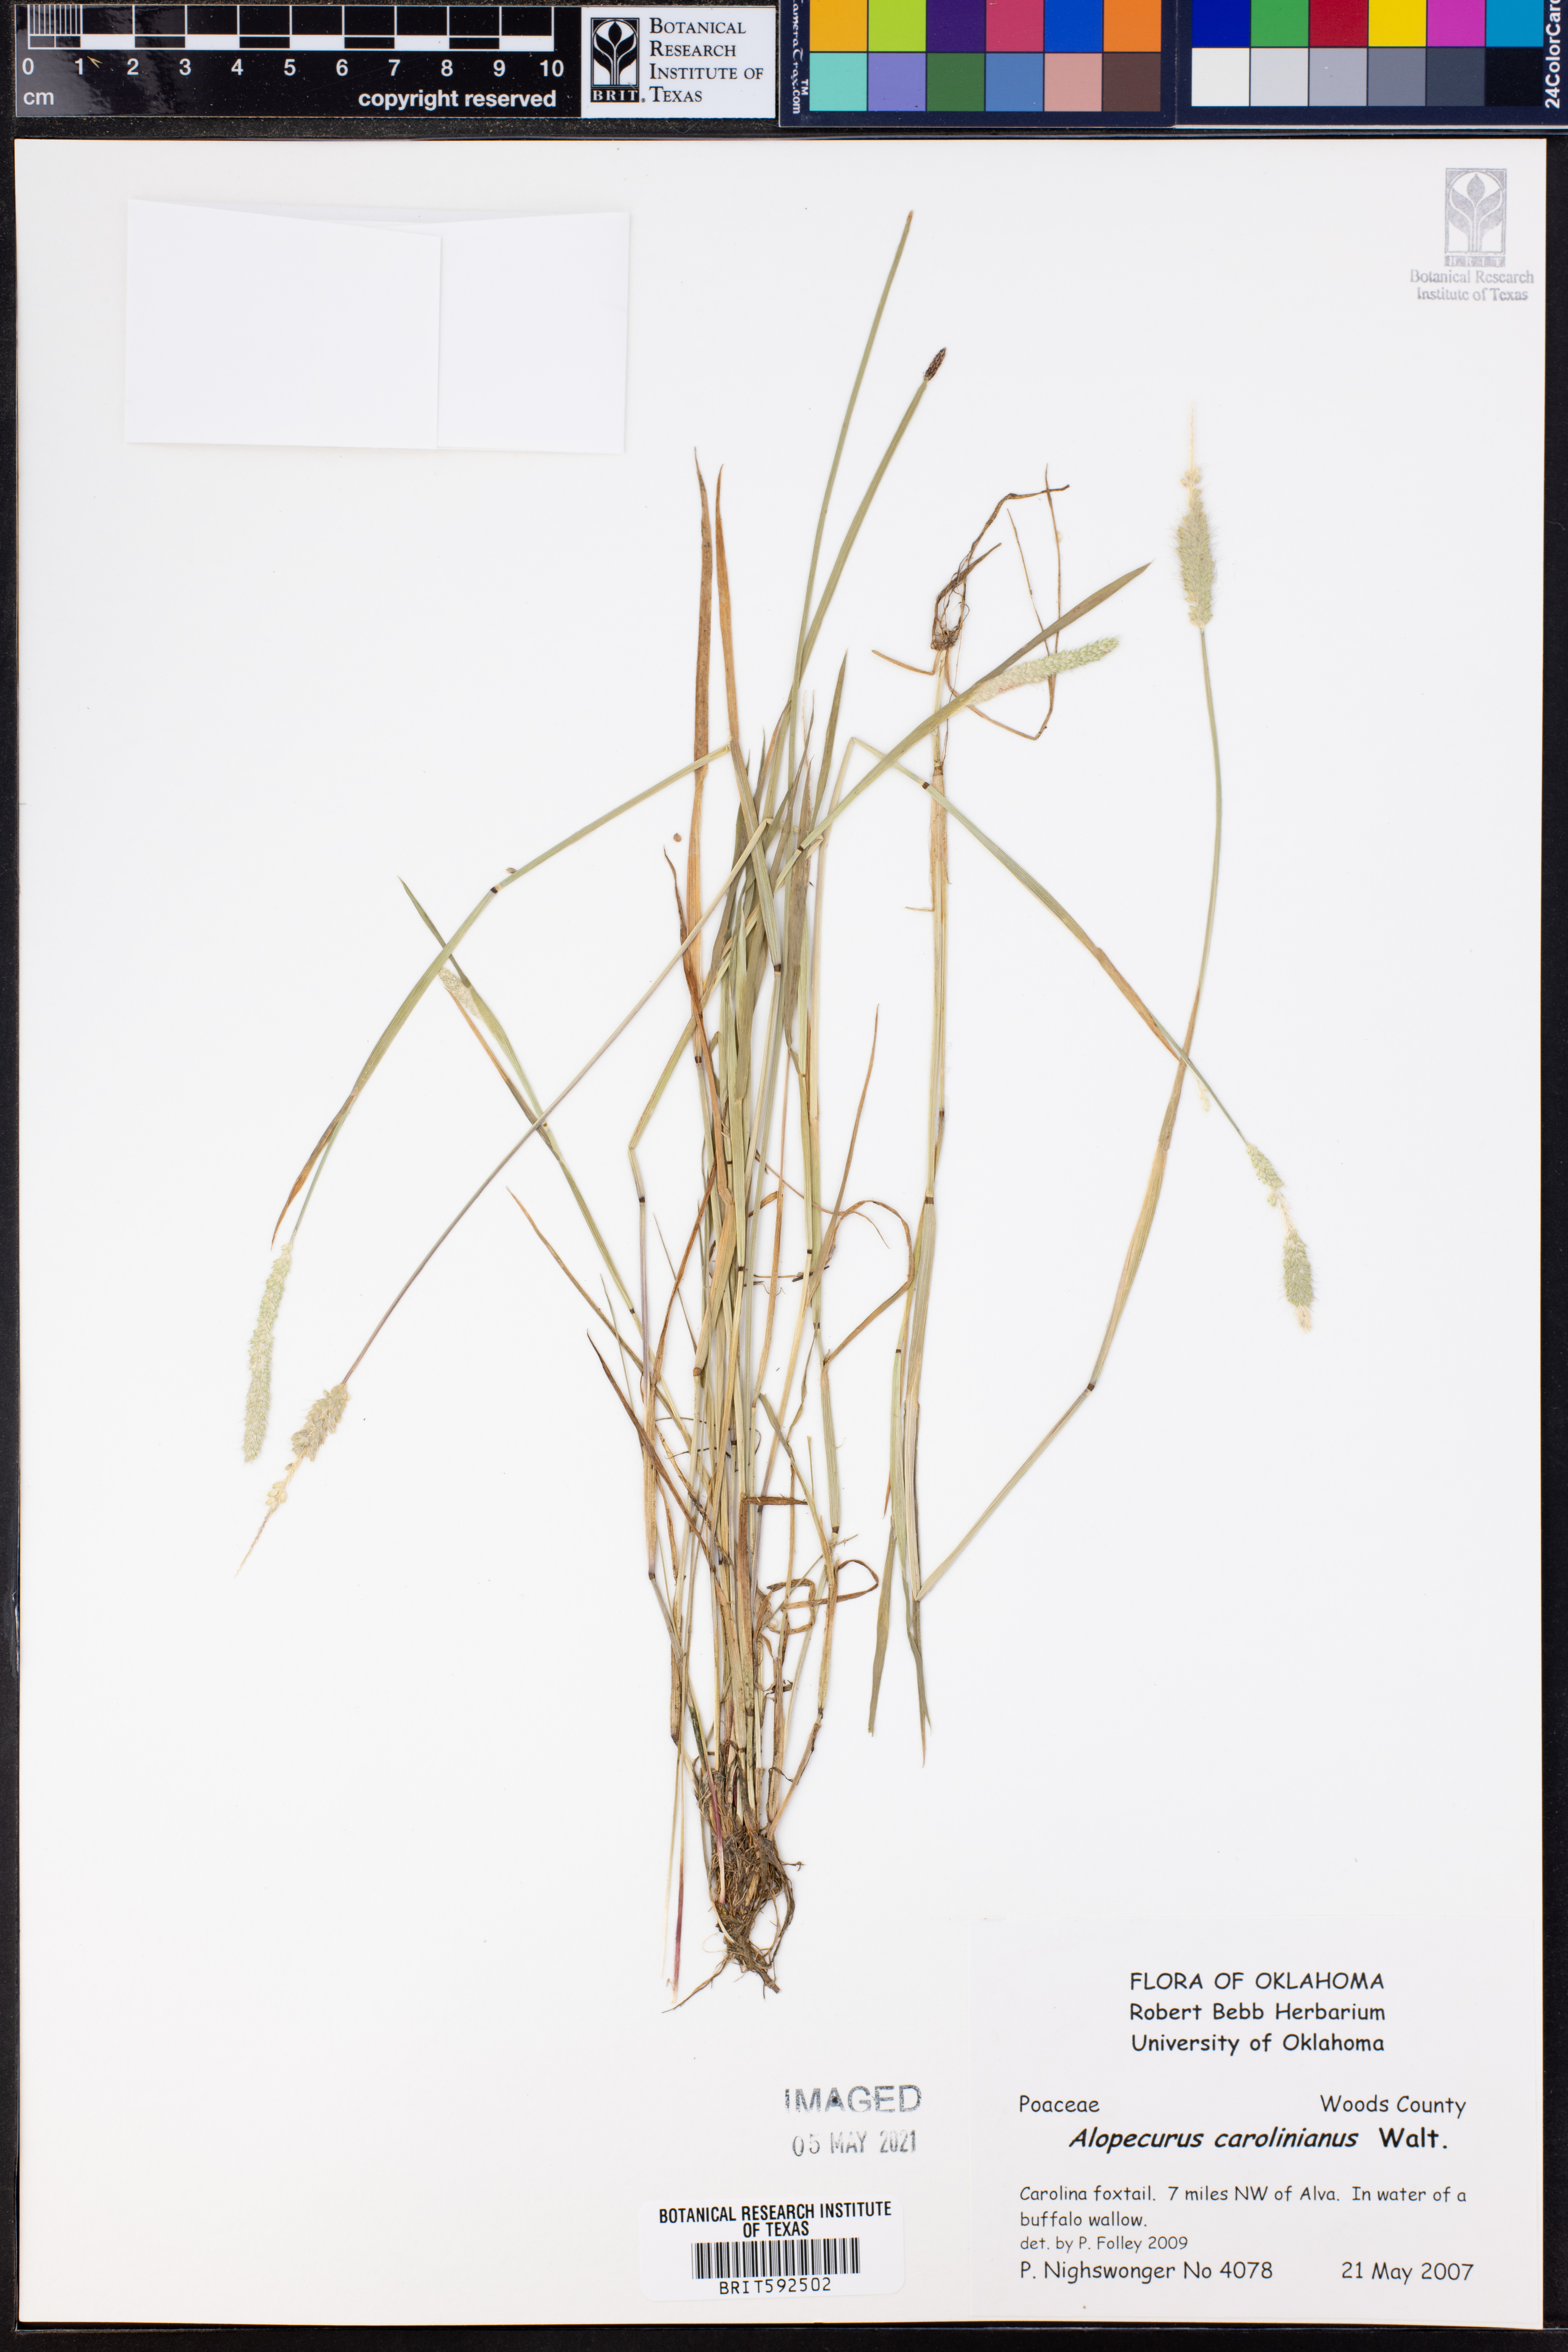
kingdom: Plantae
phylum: Tracheophyta
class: Liliopsida
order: Poales
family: Poaceae
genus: Alopecurus
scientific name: Alopecurus carolinianus
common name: Tufted foxtail
